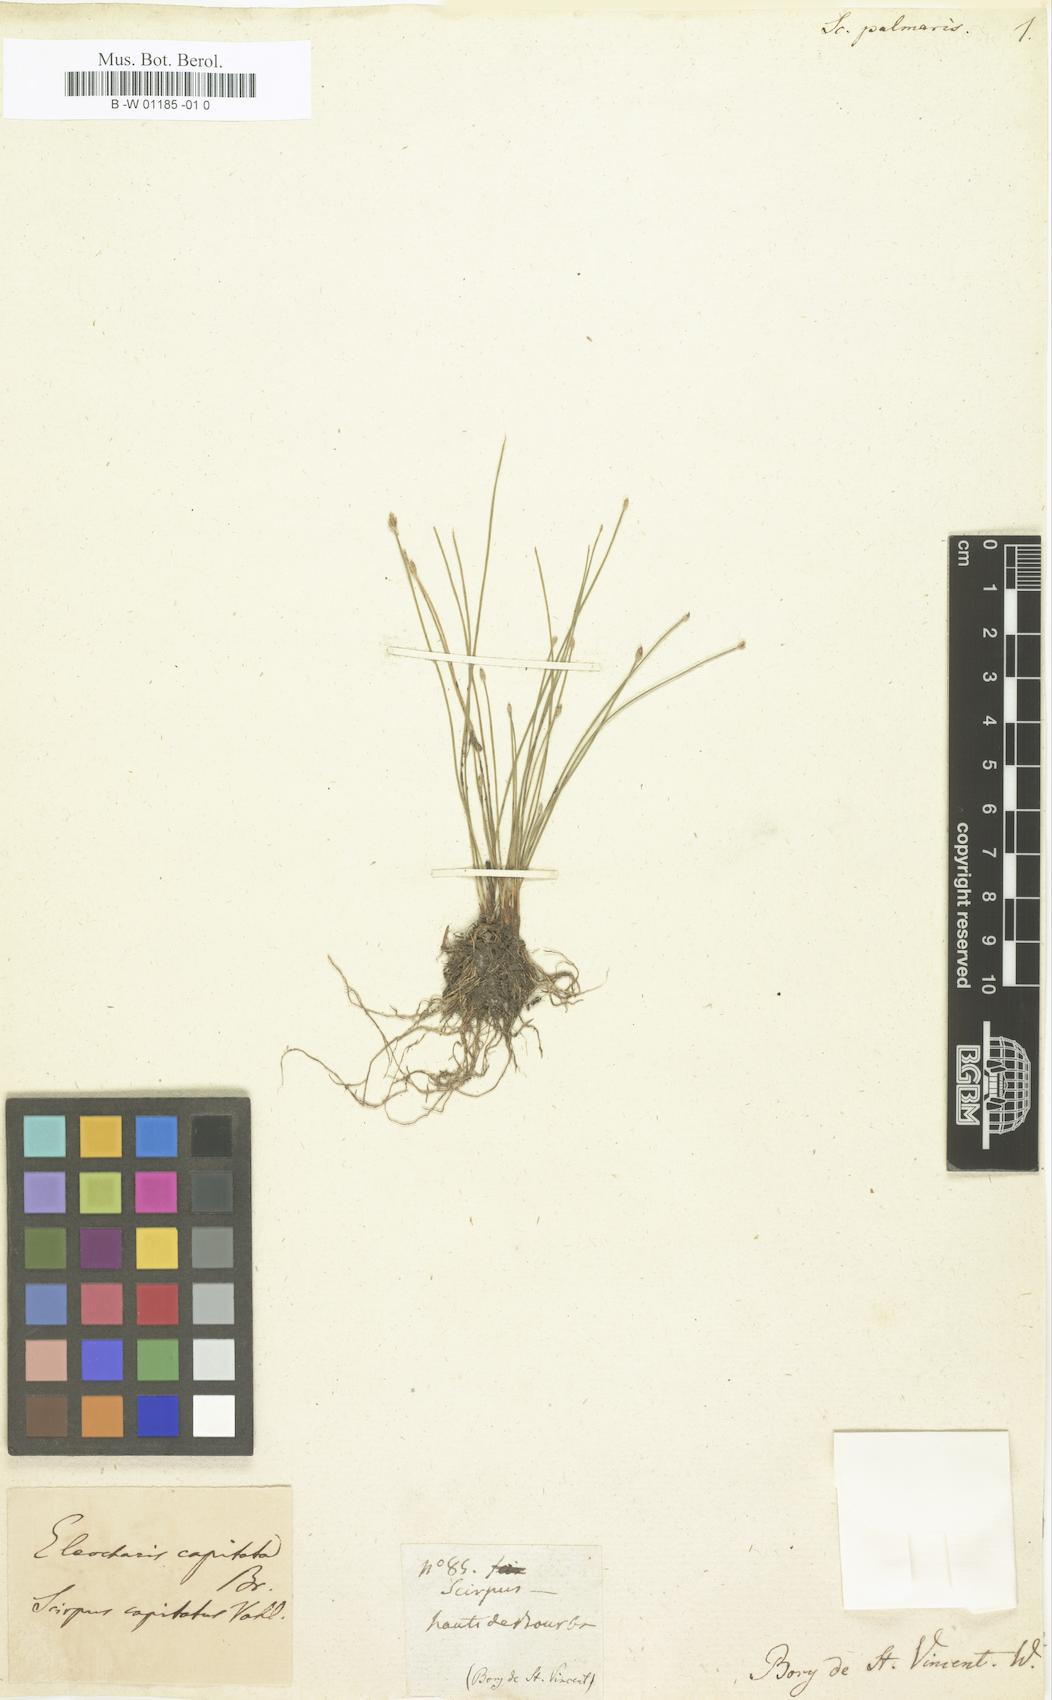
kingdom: Plantae
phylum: Tracheophyta
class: Liliopsida
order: Poales
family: Cyperaceae
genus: Eleocharis
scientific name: Eleocharis flavescens
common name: Yellow spikerush
